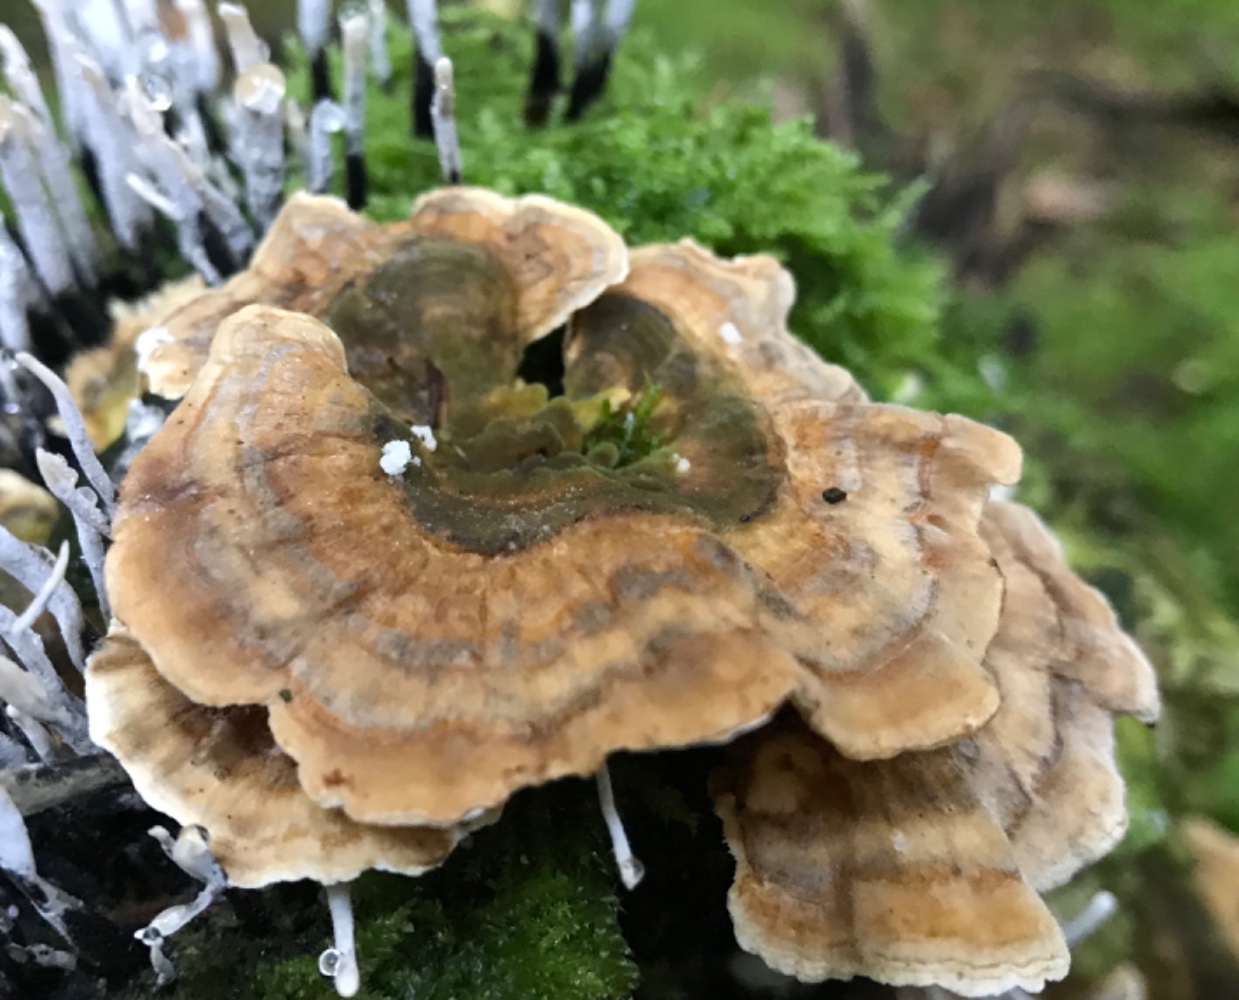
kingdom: Fungi
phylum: Basidiomycota
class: Agaricomycetes
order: Polyporales
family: Polyporaceae
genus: Trametes
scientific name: Trametes versicolor
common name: broget læderporesvamp
